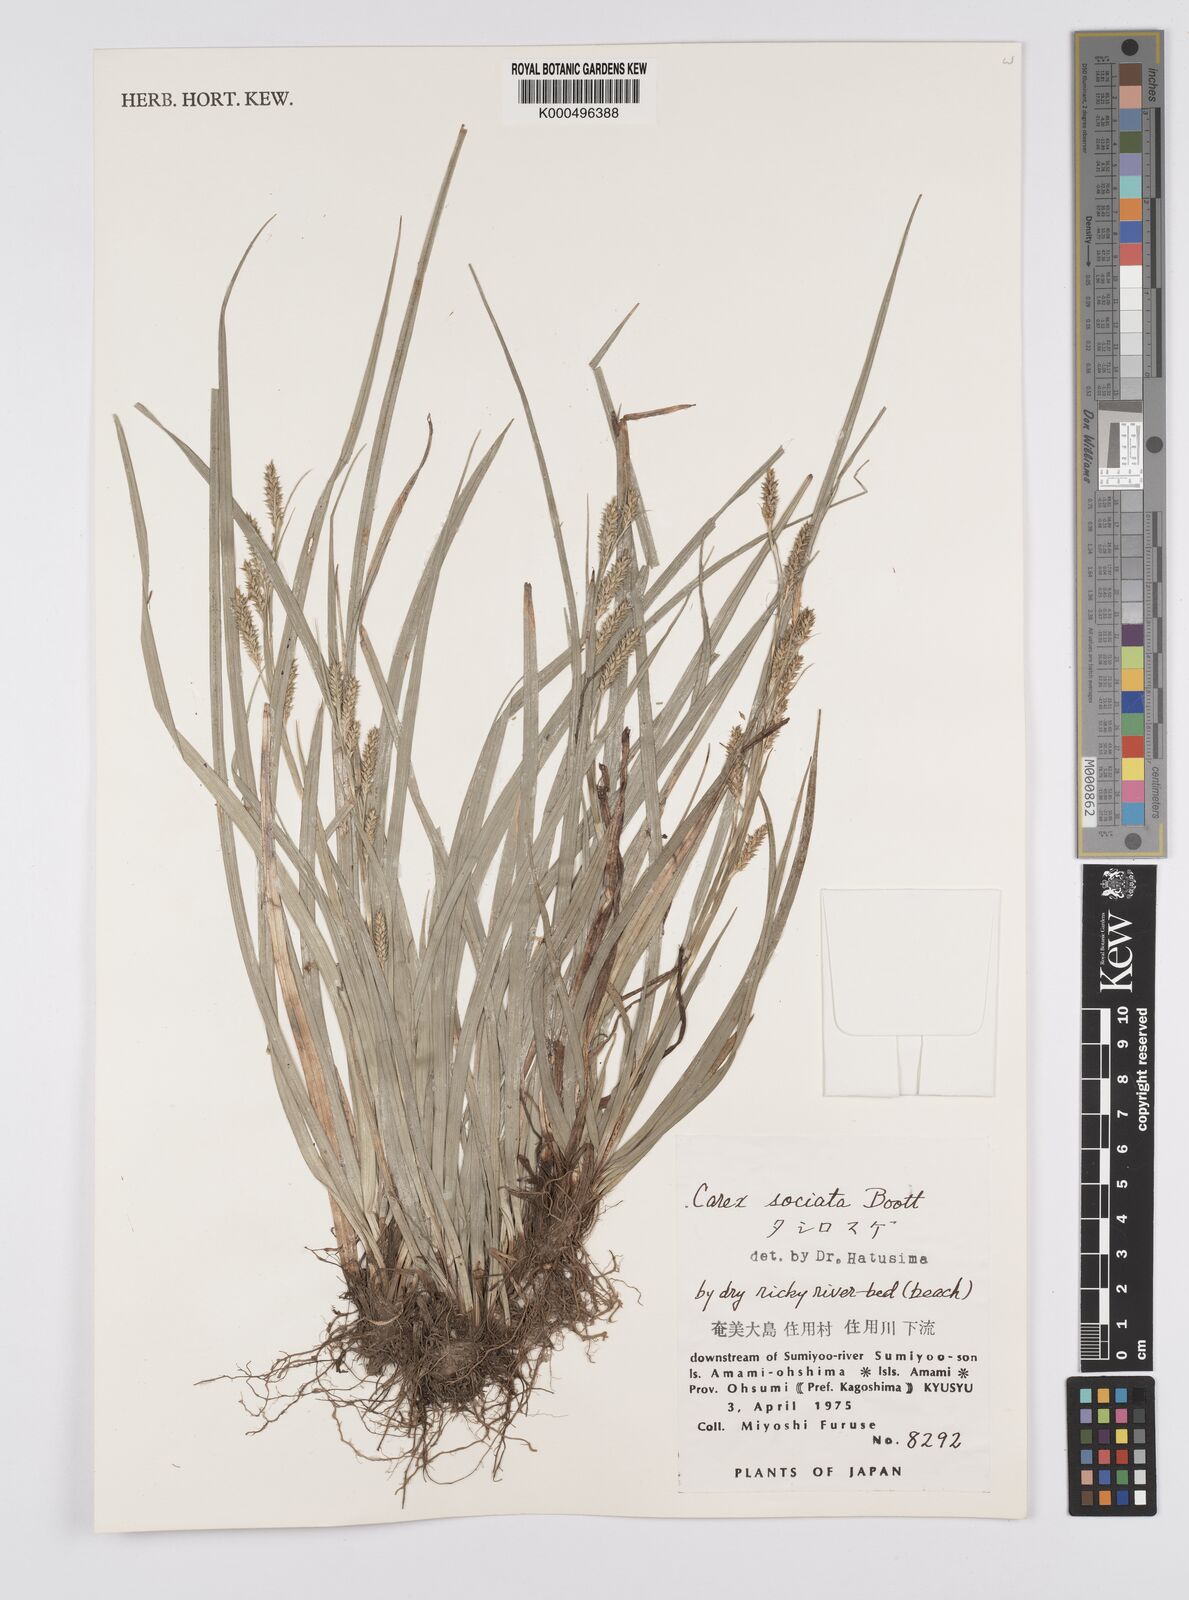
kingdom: Plantae
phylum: Tracheophyta
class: Liliopsida
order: Poales
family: Cyperaceae
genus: Carex
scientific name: Carex chinensis
